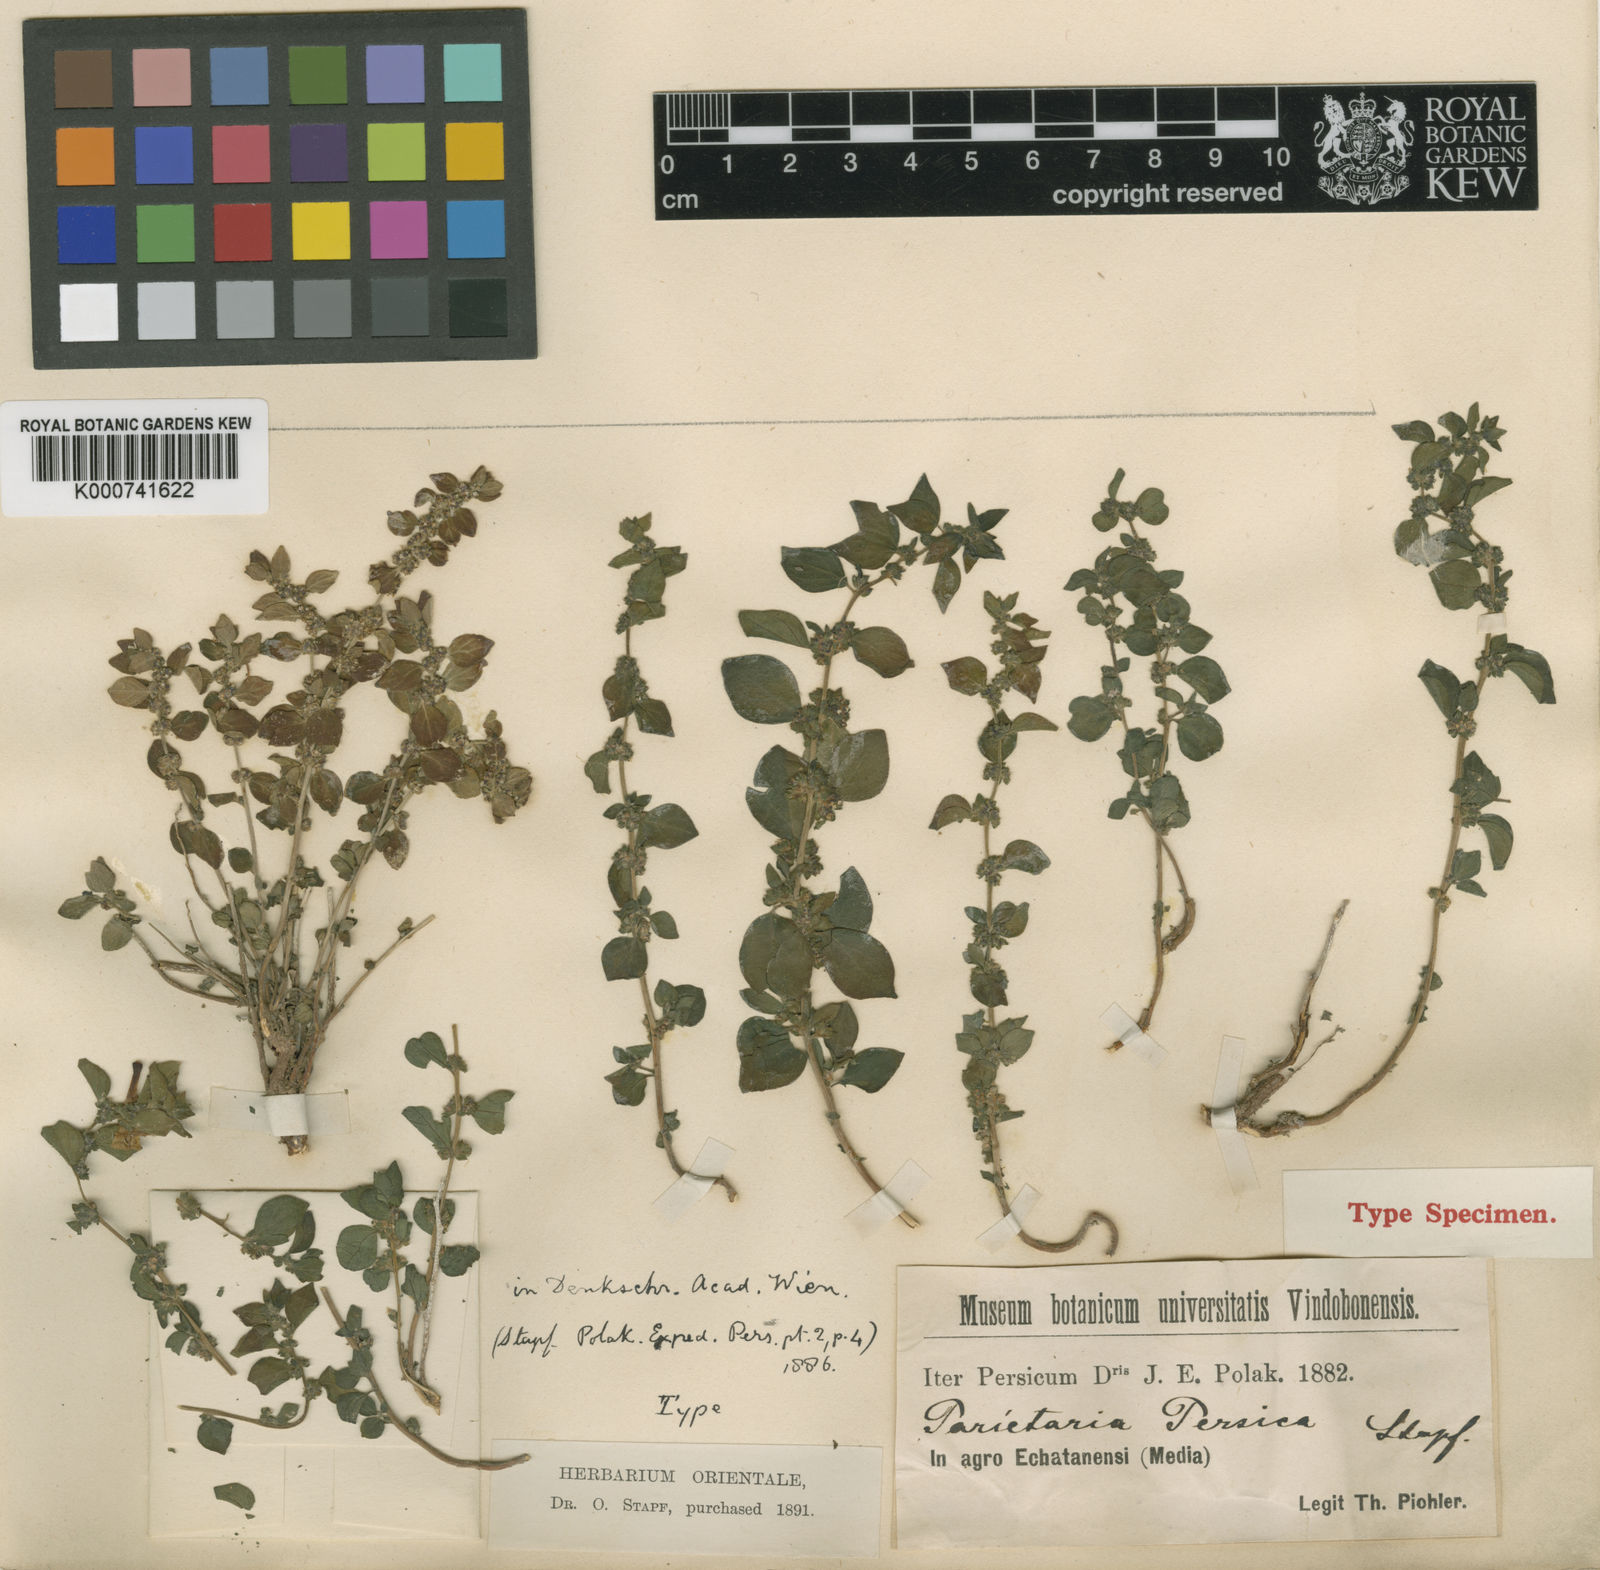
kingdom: Plantae
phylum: Tracheophyta
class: Magnoliopsida
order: Rosales
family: Urticaceae
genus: Parietaria
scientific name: Parietaria judaica
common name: Pellitory-of-the-wall
